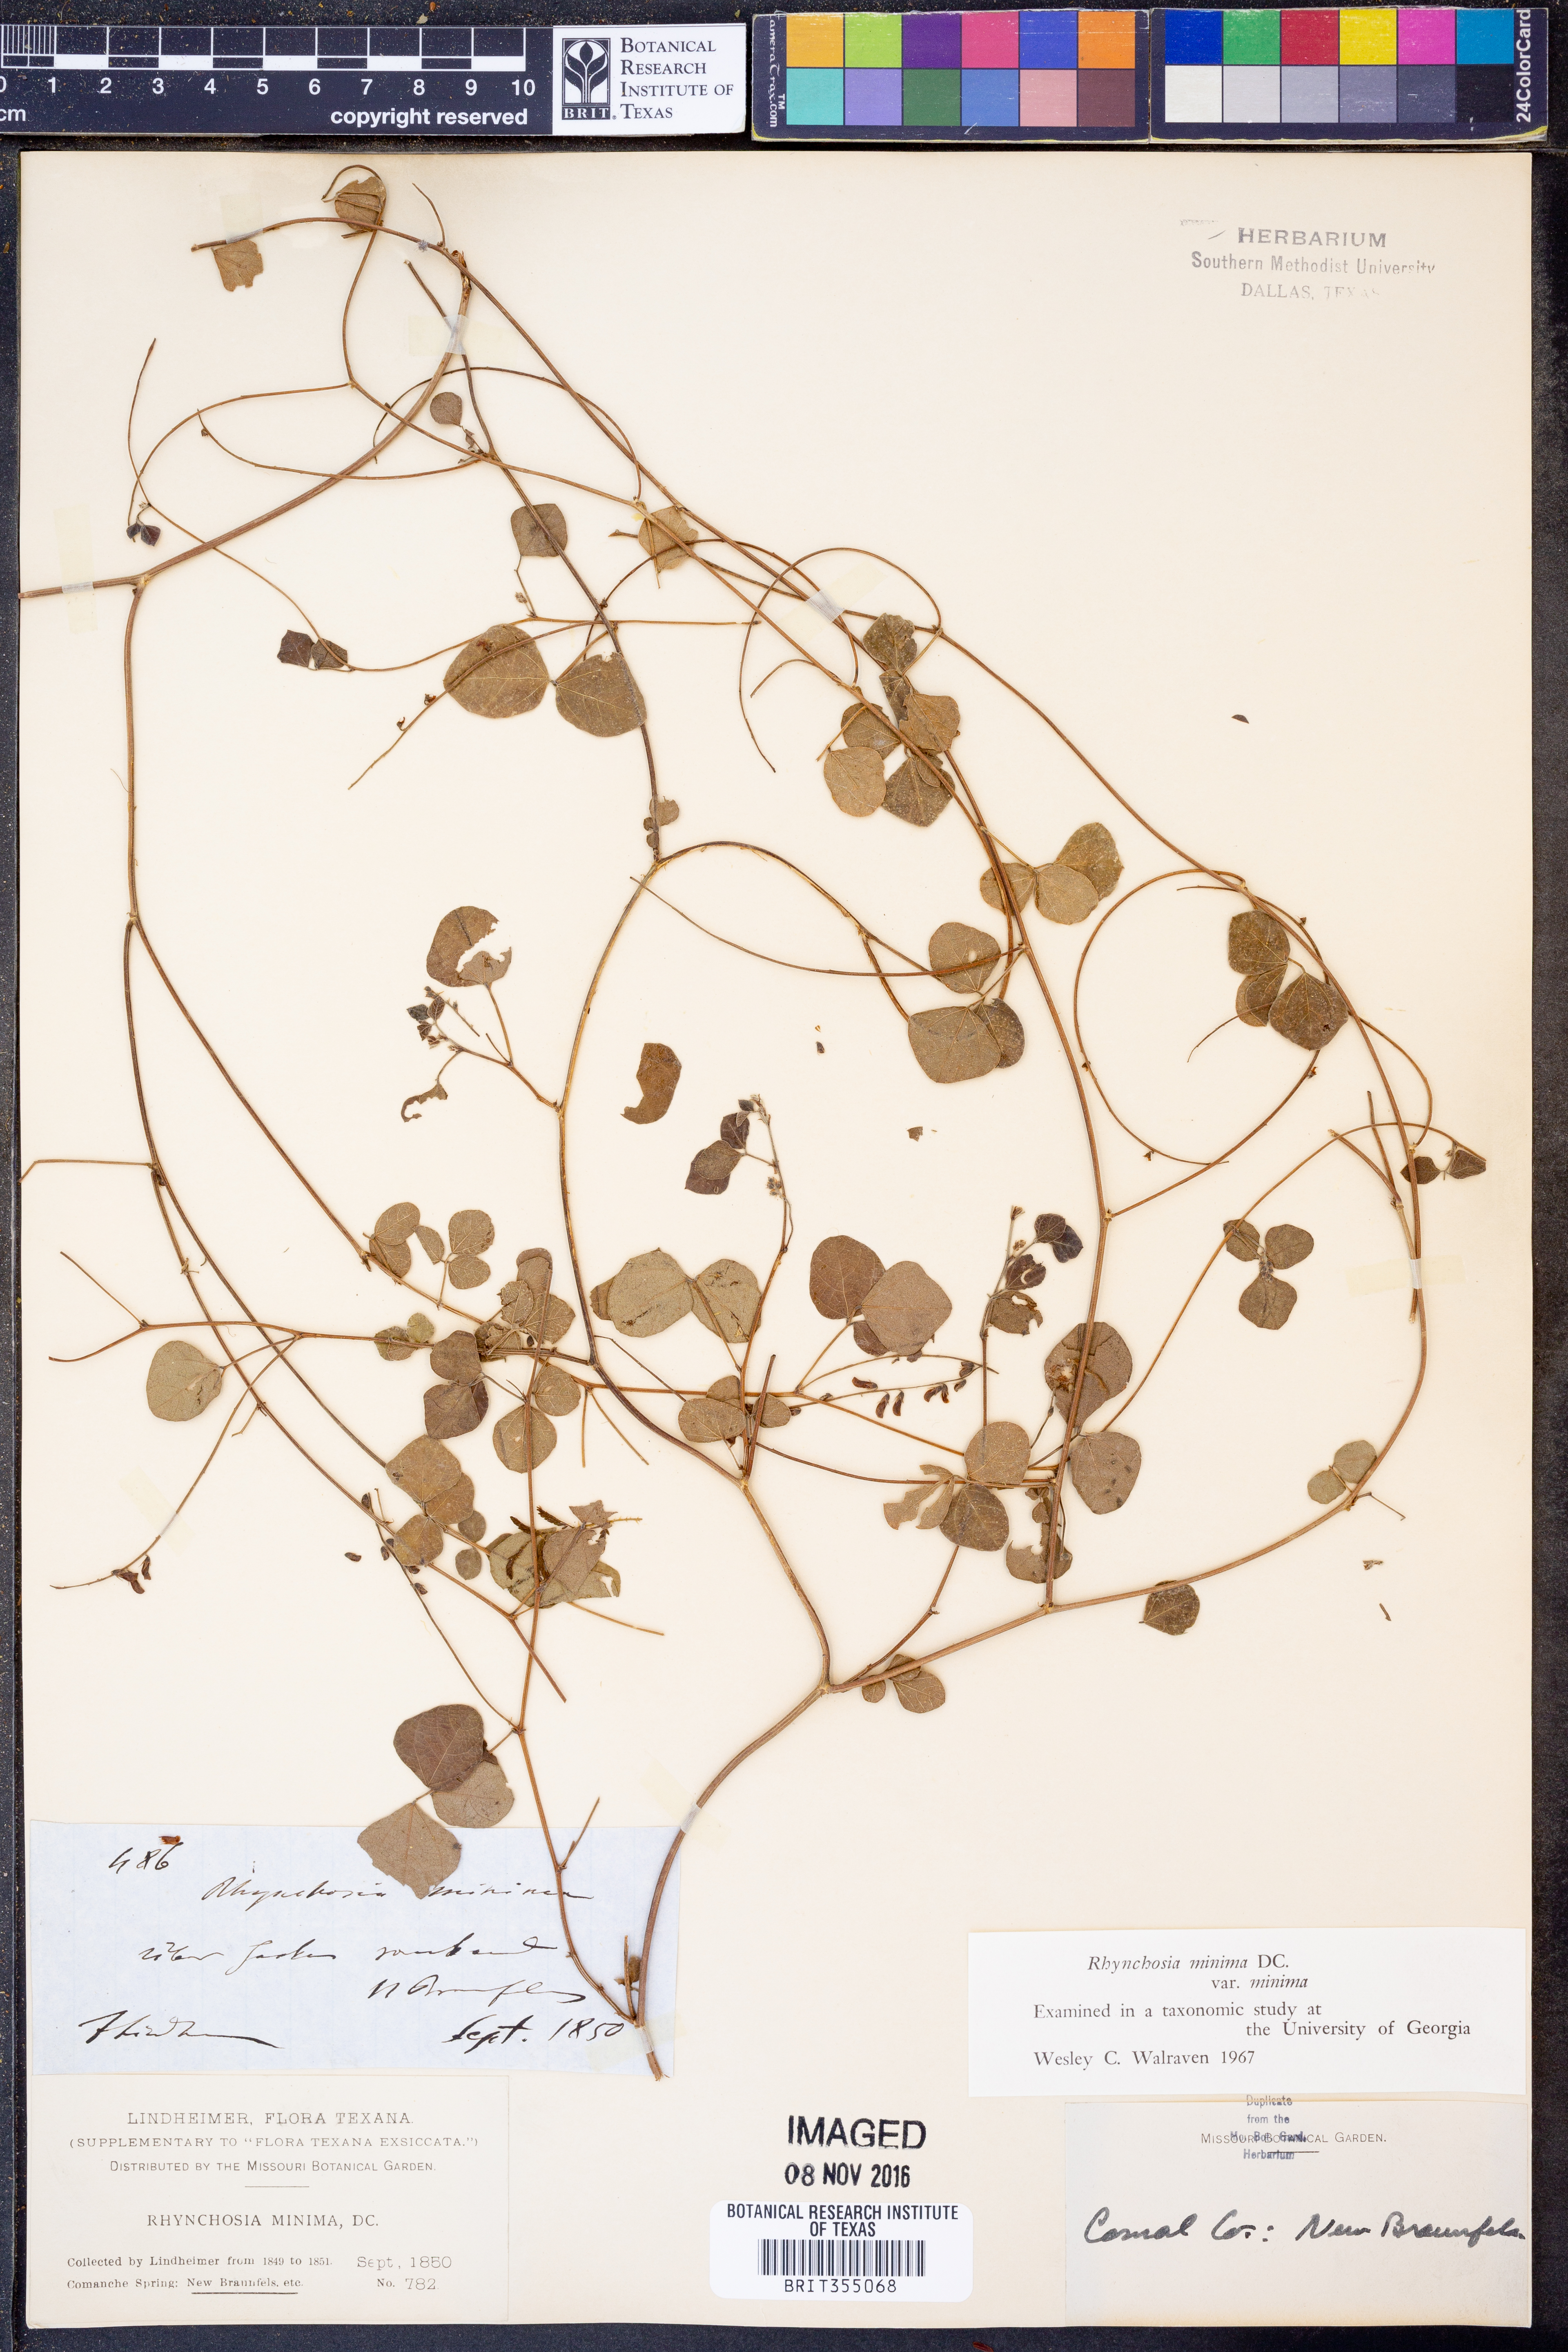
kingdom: Plantae
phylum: Tracheophyta
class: Magnoliopsida
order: Fabales
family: Fabaceae
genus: Rhynchosia
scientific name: Rhynchosia minima
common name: Least snoutbean
